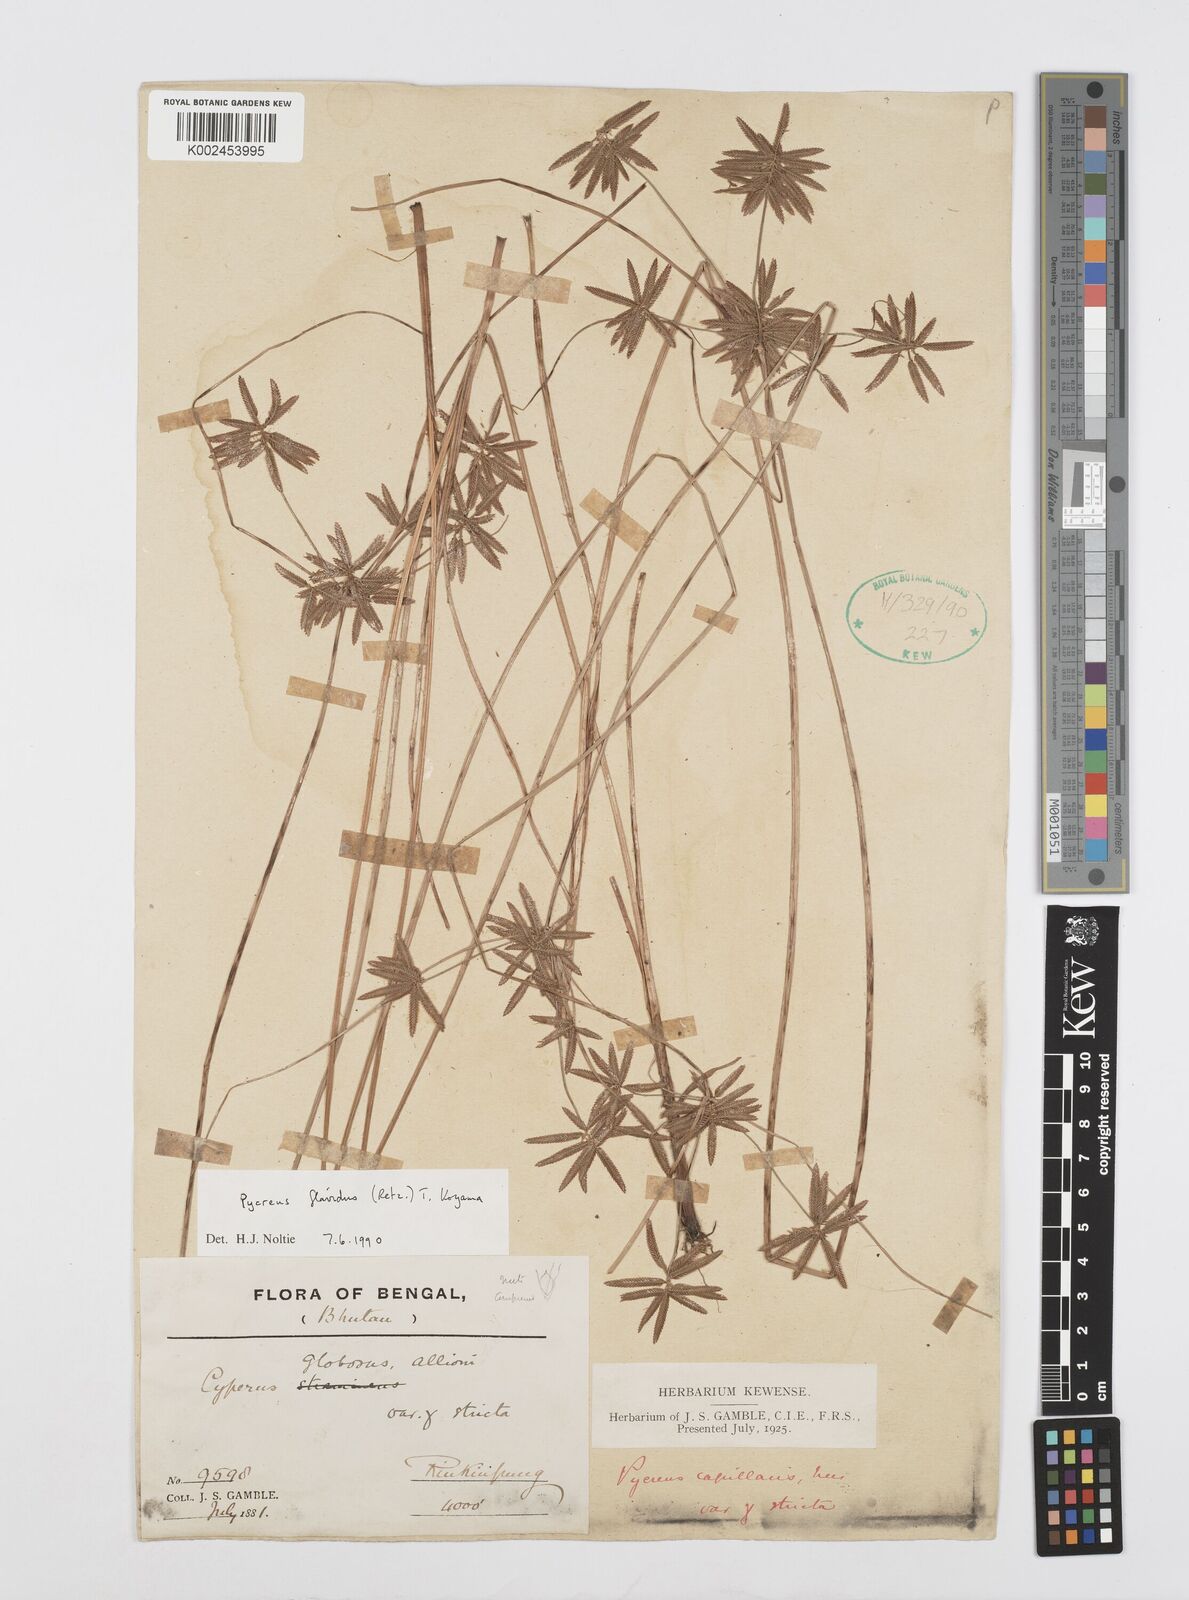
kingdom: Plantae
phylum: Tracheophyta
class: Liliopsida
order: Poales
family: Cyperaceae
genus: Cyperus
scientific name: Cyperus flavidus
